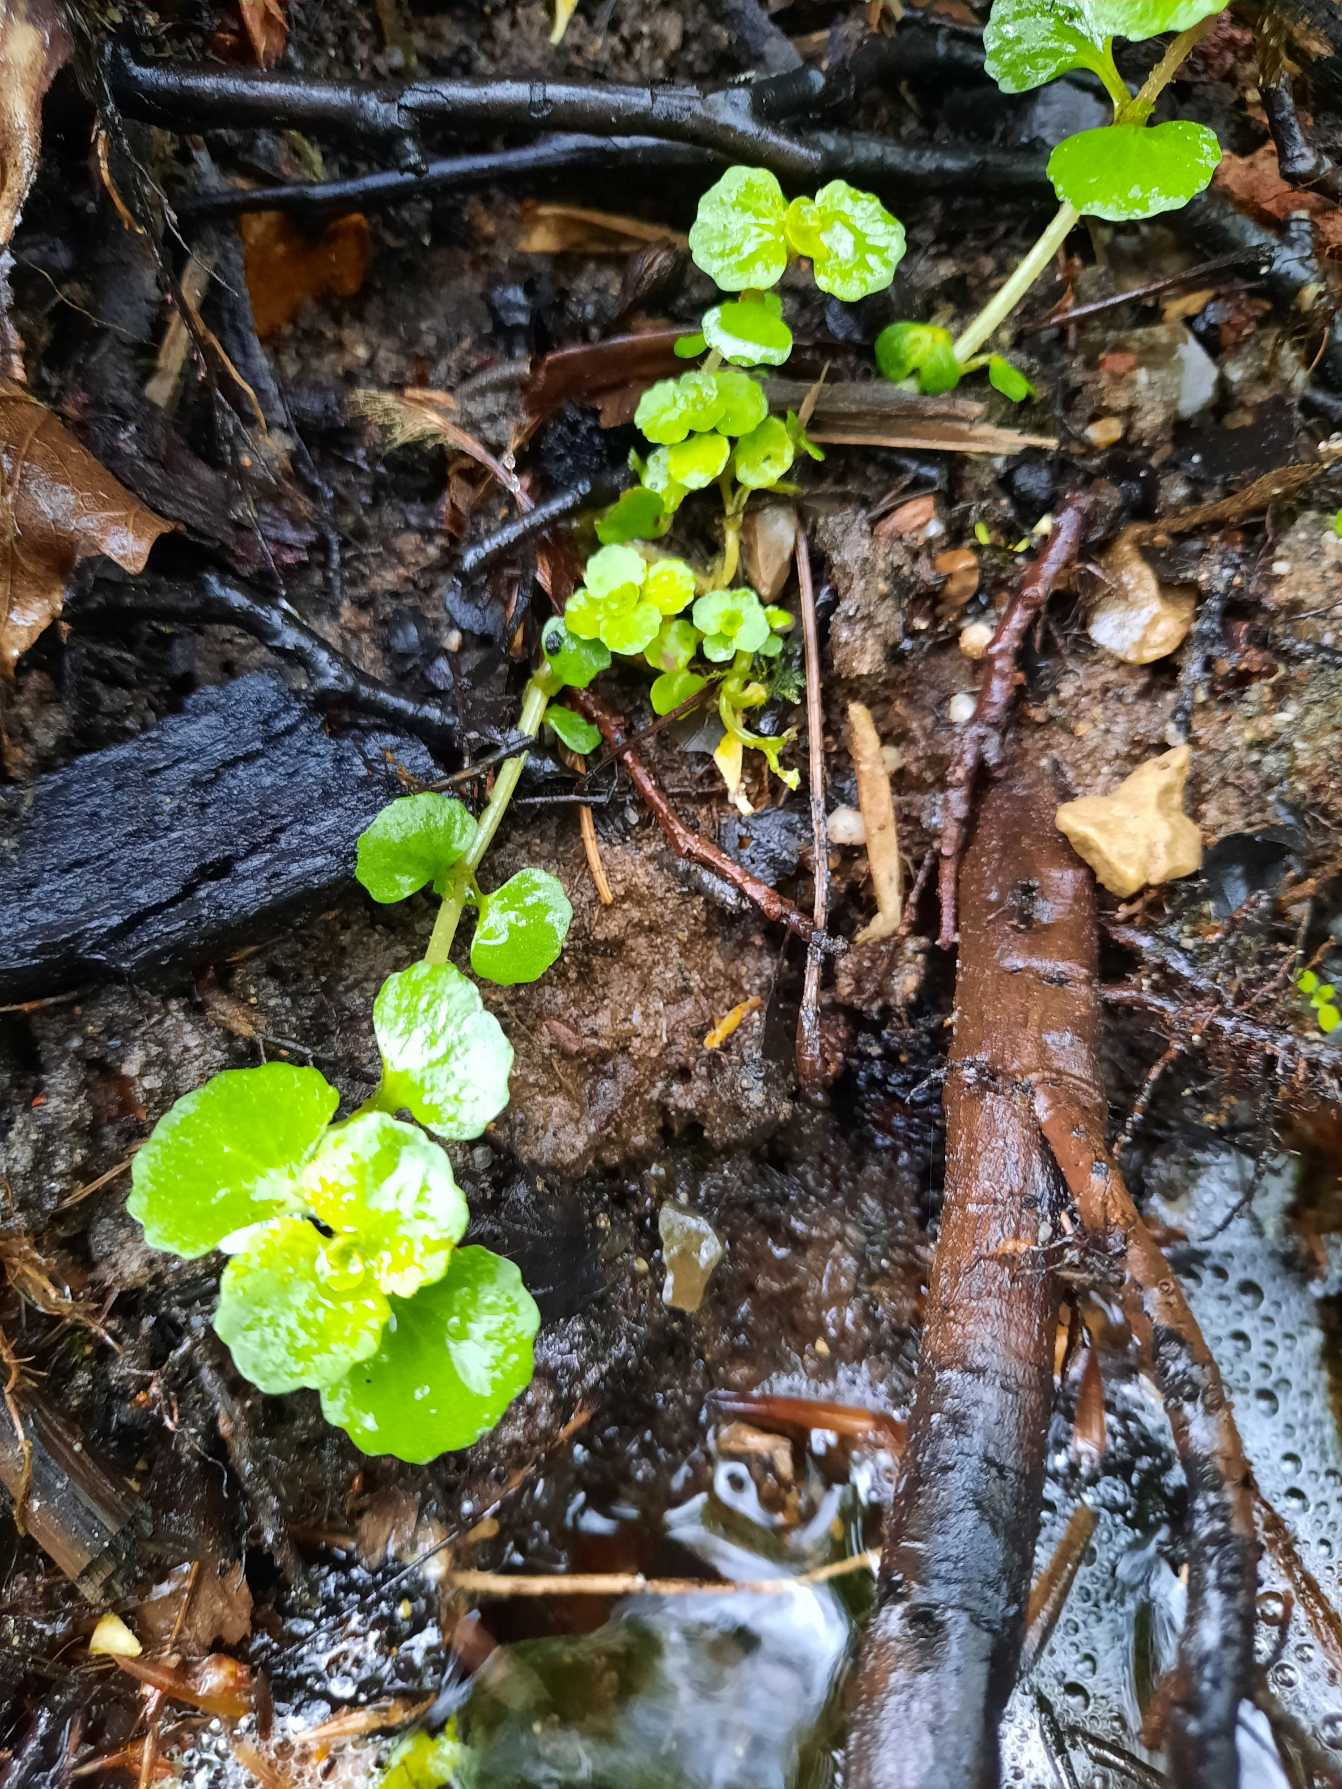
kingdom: Plantae
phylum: Tracheophyta
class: Magnoliopsida
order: Saxifragales
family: Saxifragaceae
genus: Chrysosplenium
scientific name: Chrysosplenium oppositifolium
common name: Småbladet milturt
